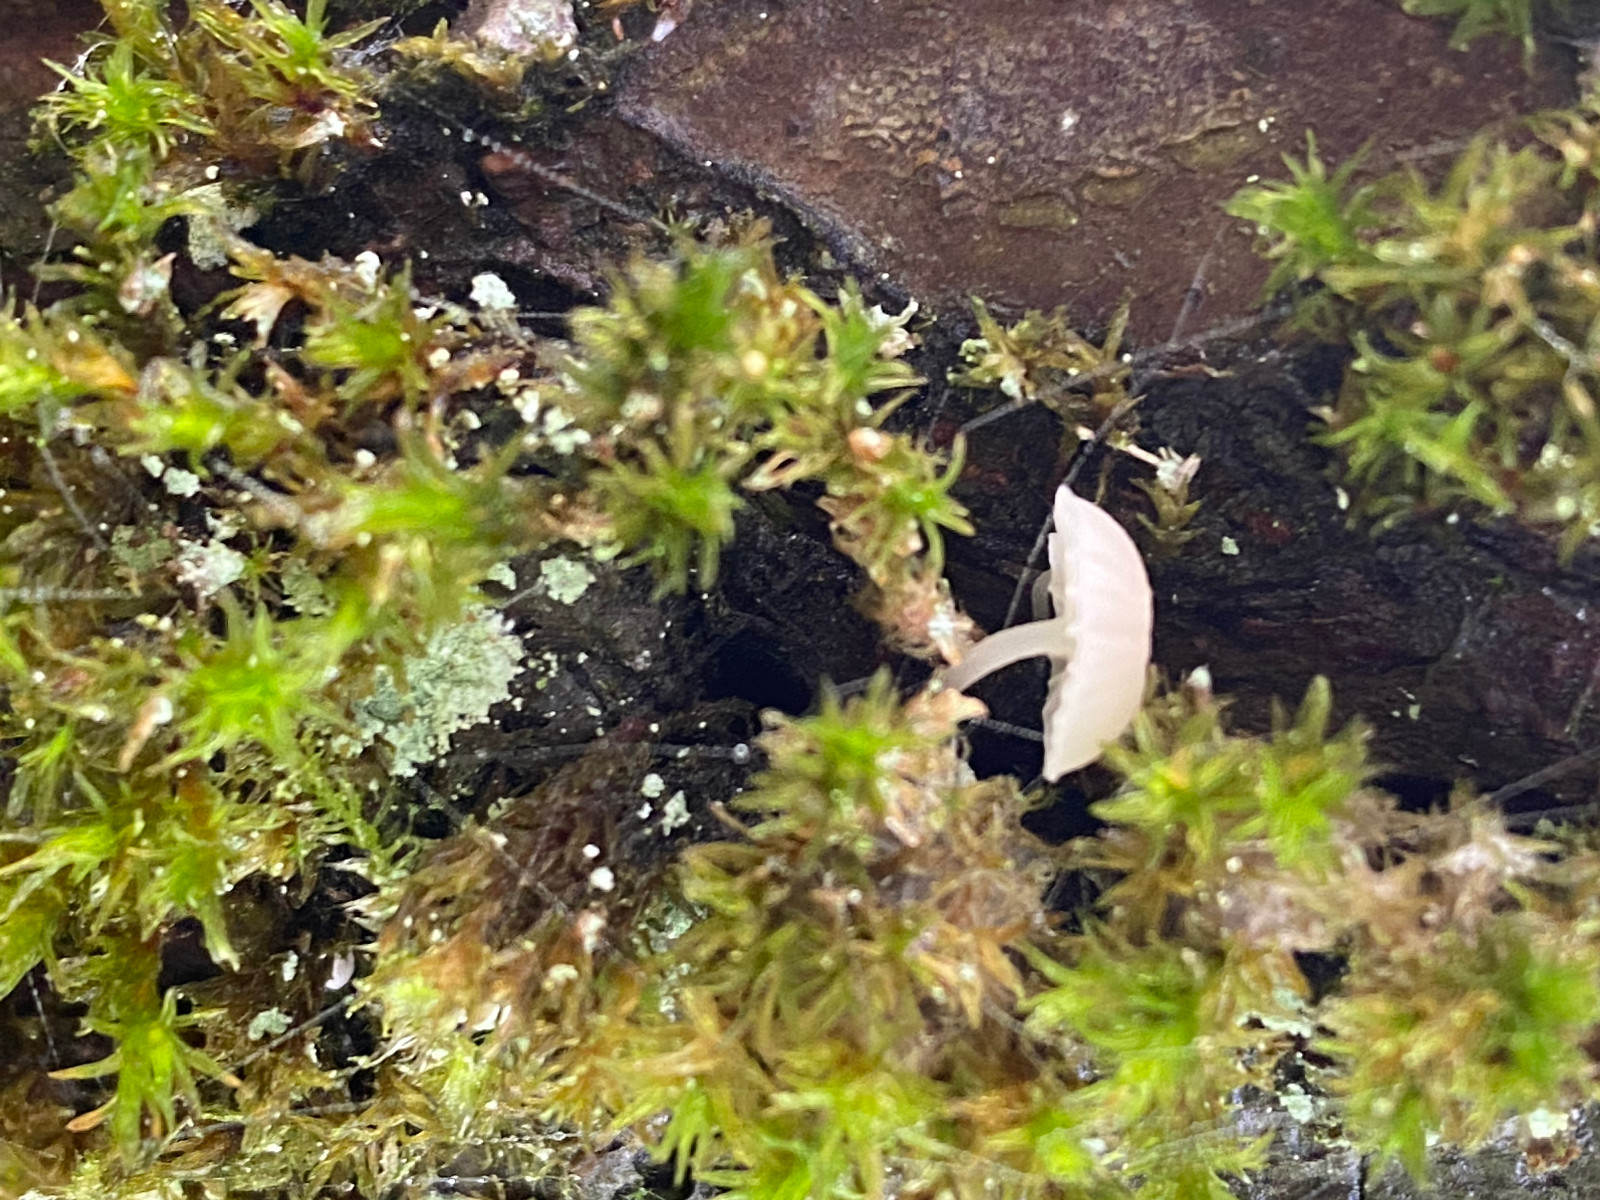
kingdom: Fungi
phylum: Basidiomycota
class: Agaricomycetes
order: Agaricales
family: Porotheleaceae
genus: Phloeomana
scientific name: Phloeomana
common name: huesvamp
